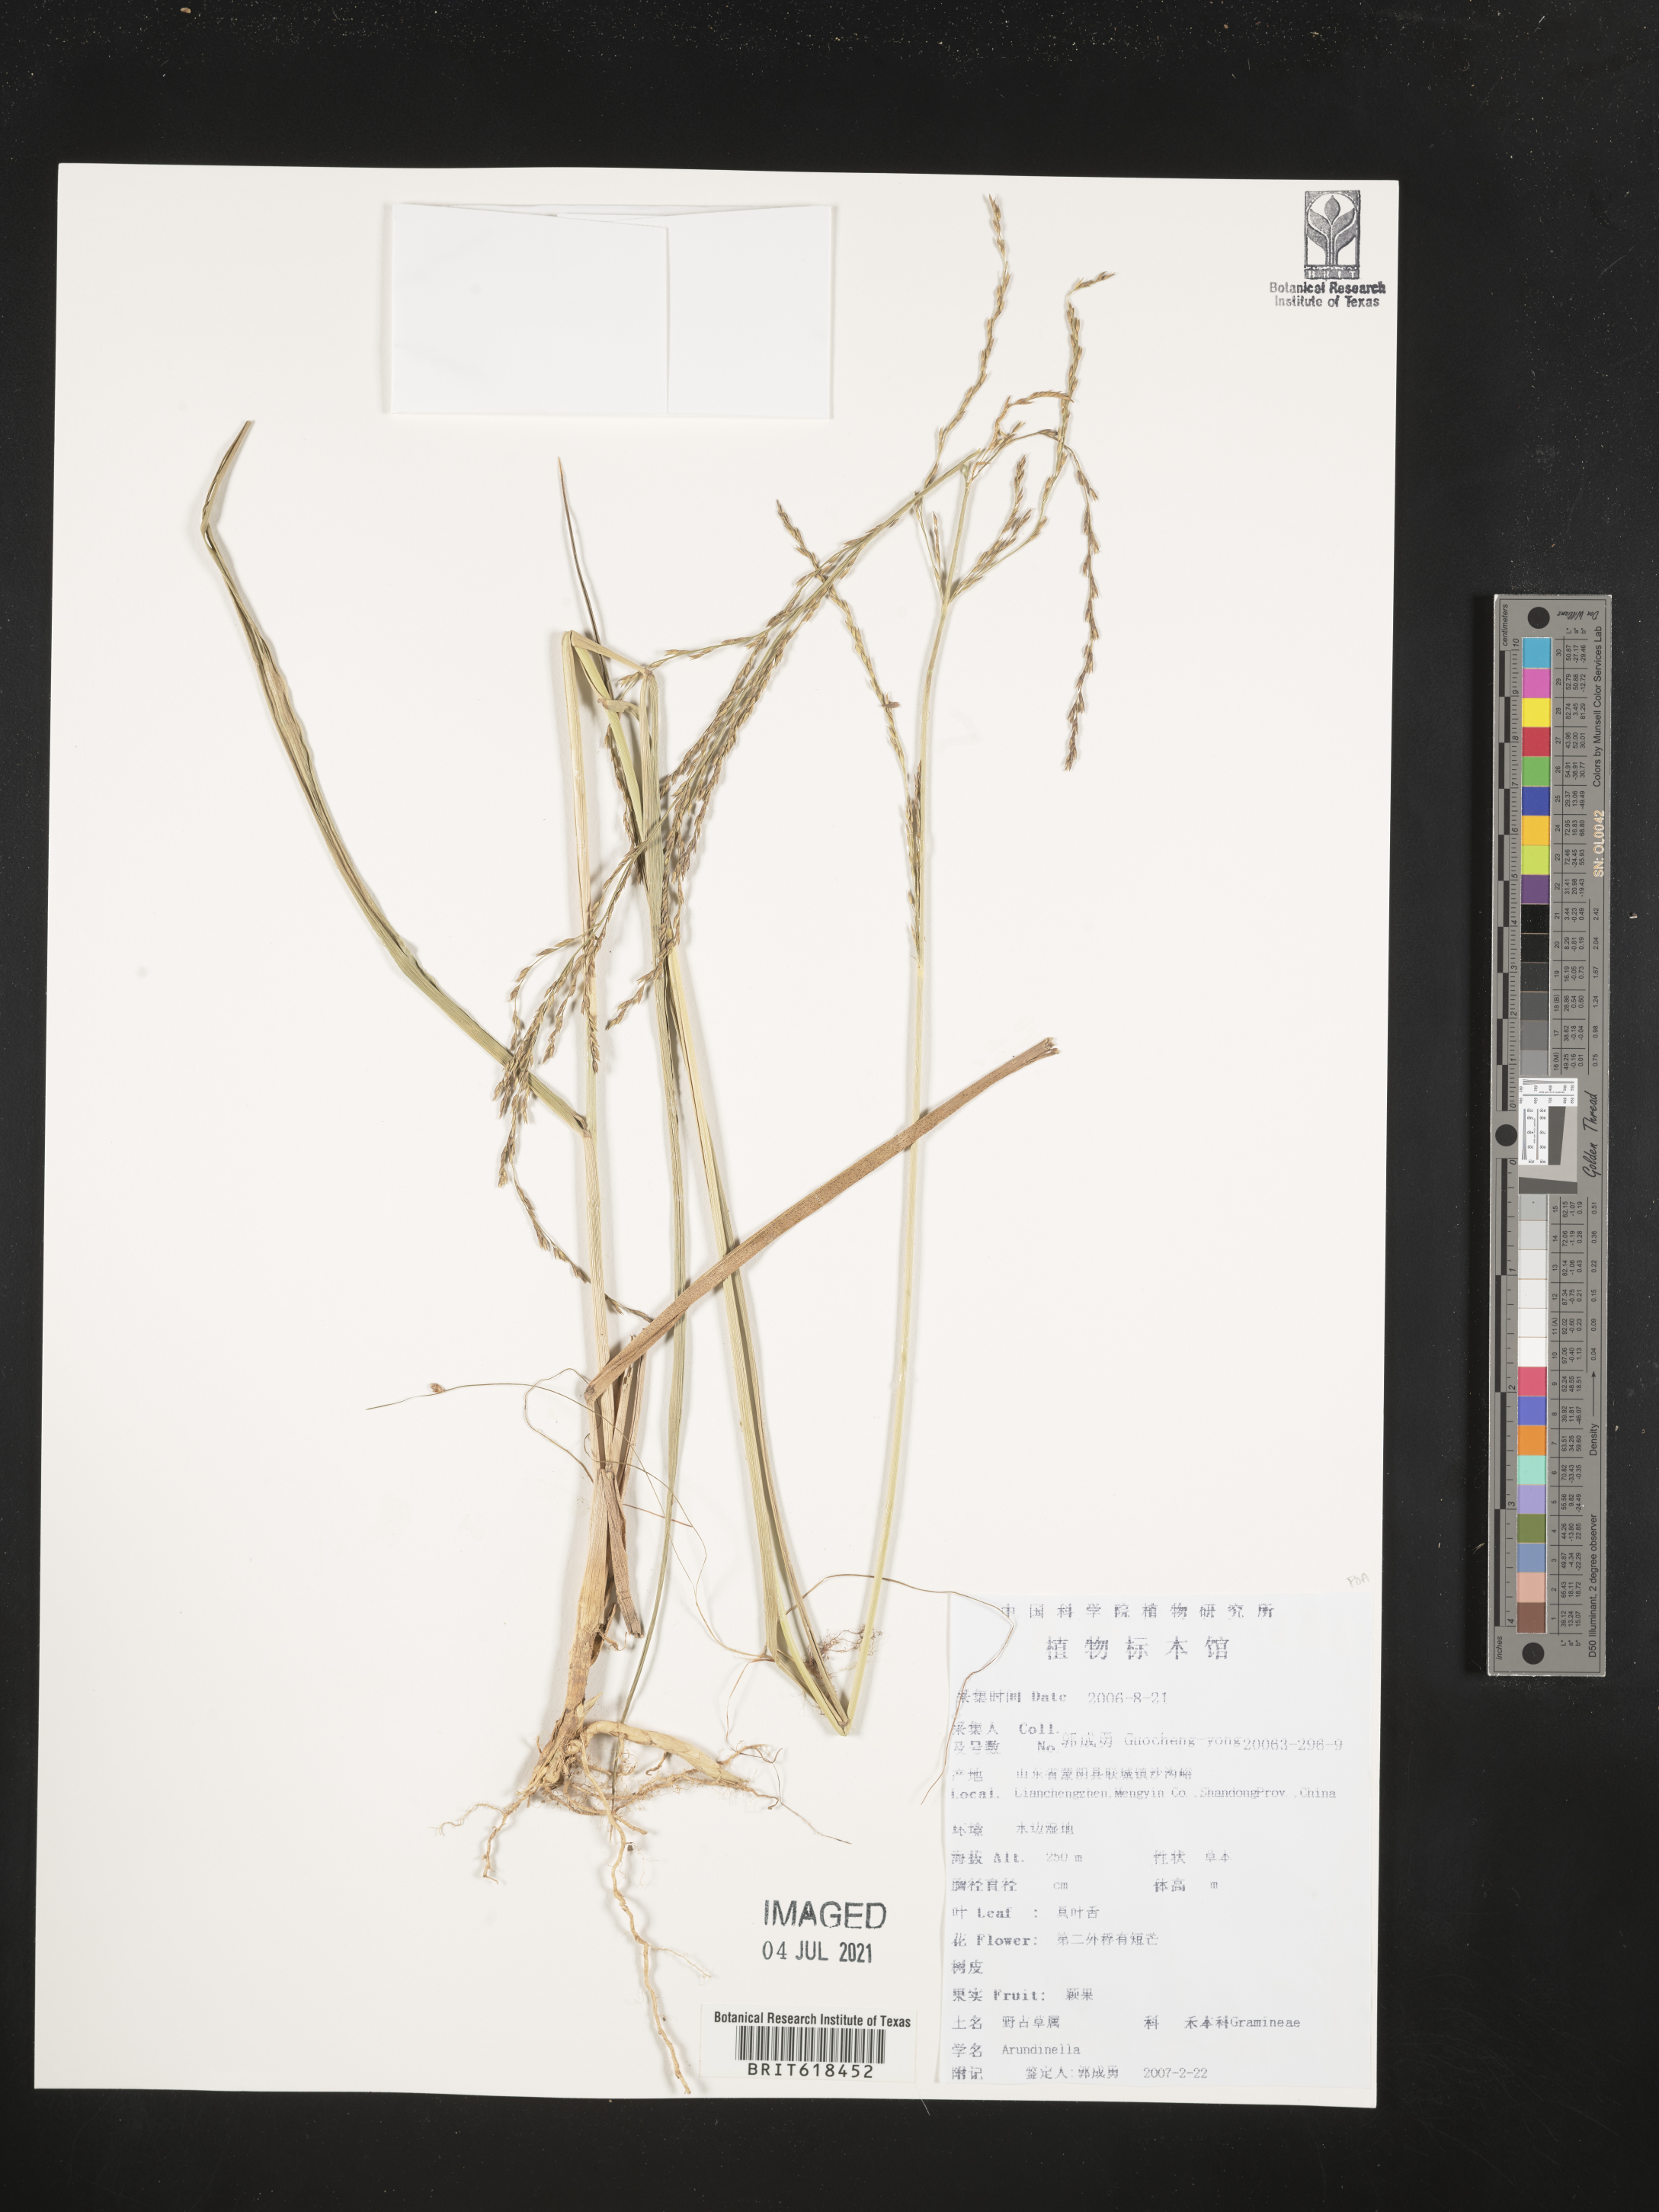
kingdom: Plantae
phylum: Tracheophyta
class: Liliopsida
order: Poales
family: Poaceae
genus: Arundinella
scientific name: Arundinella
